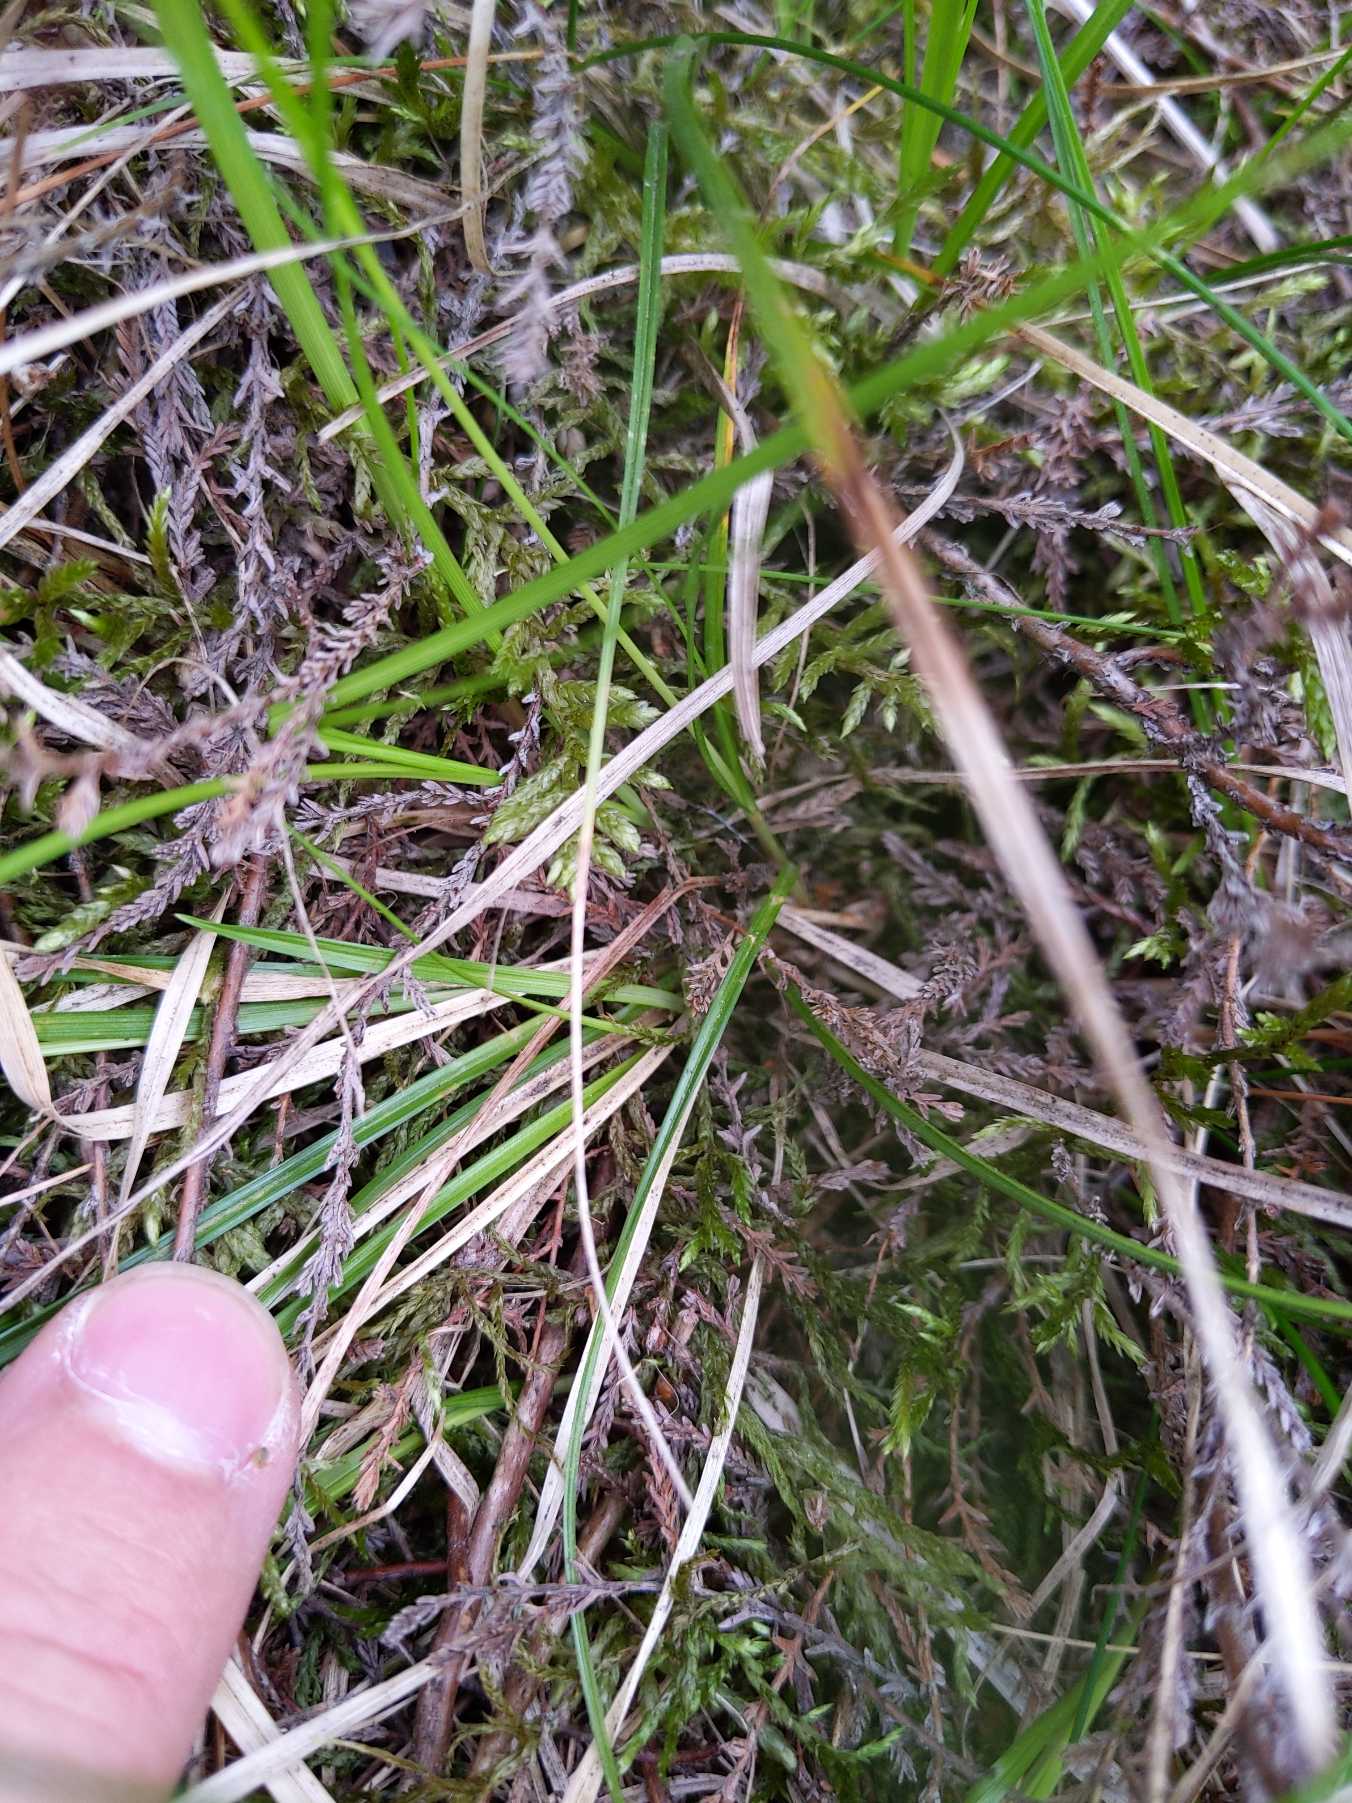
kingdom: Plantae
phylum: Tracheophyta
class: Liliopsida
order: Poales
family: Cyperaceae
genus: Carex
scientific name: Carex pilulifera
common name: Pille-star
